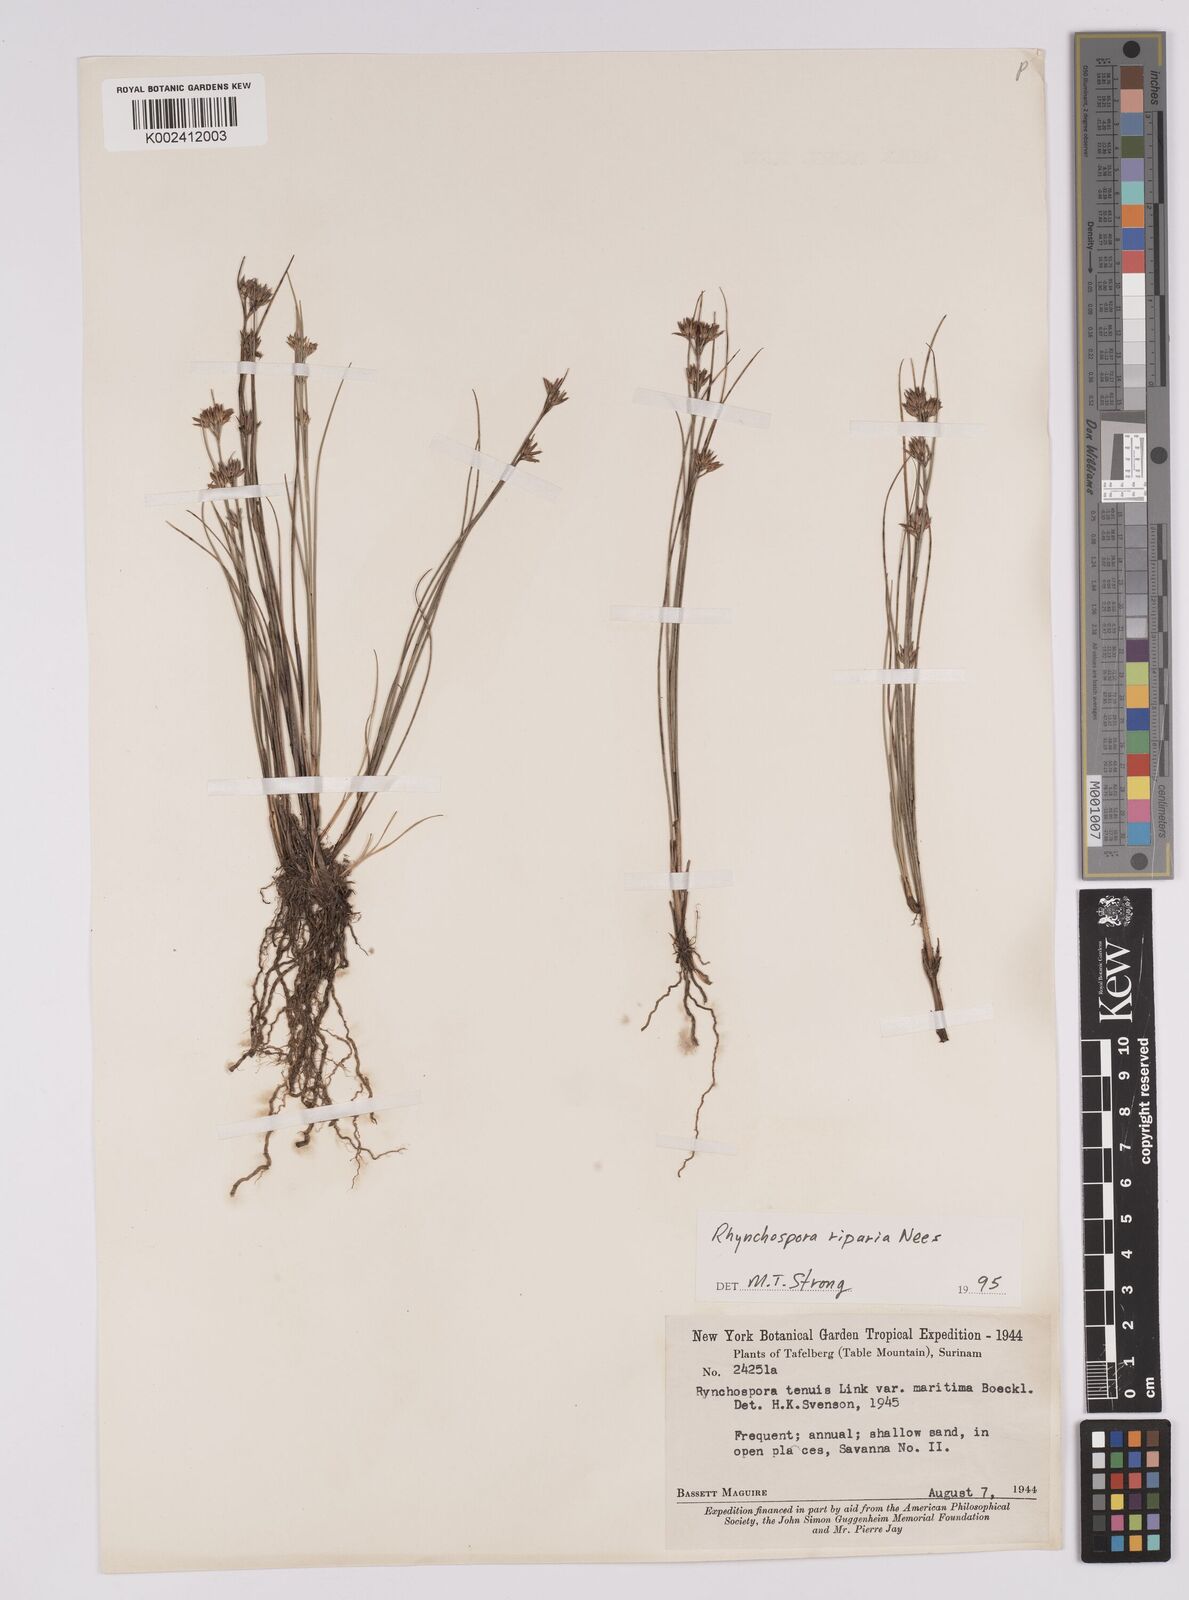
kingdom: Plantae
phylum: Tracheophyta
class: Liliopsida
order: Poales
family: Cyperaceae
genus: Rhynchospora
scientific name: Rhynchospora riparia
